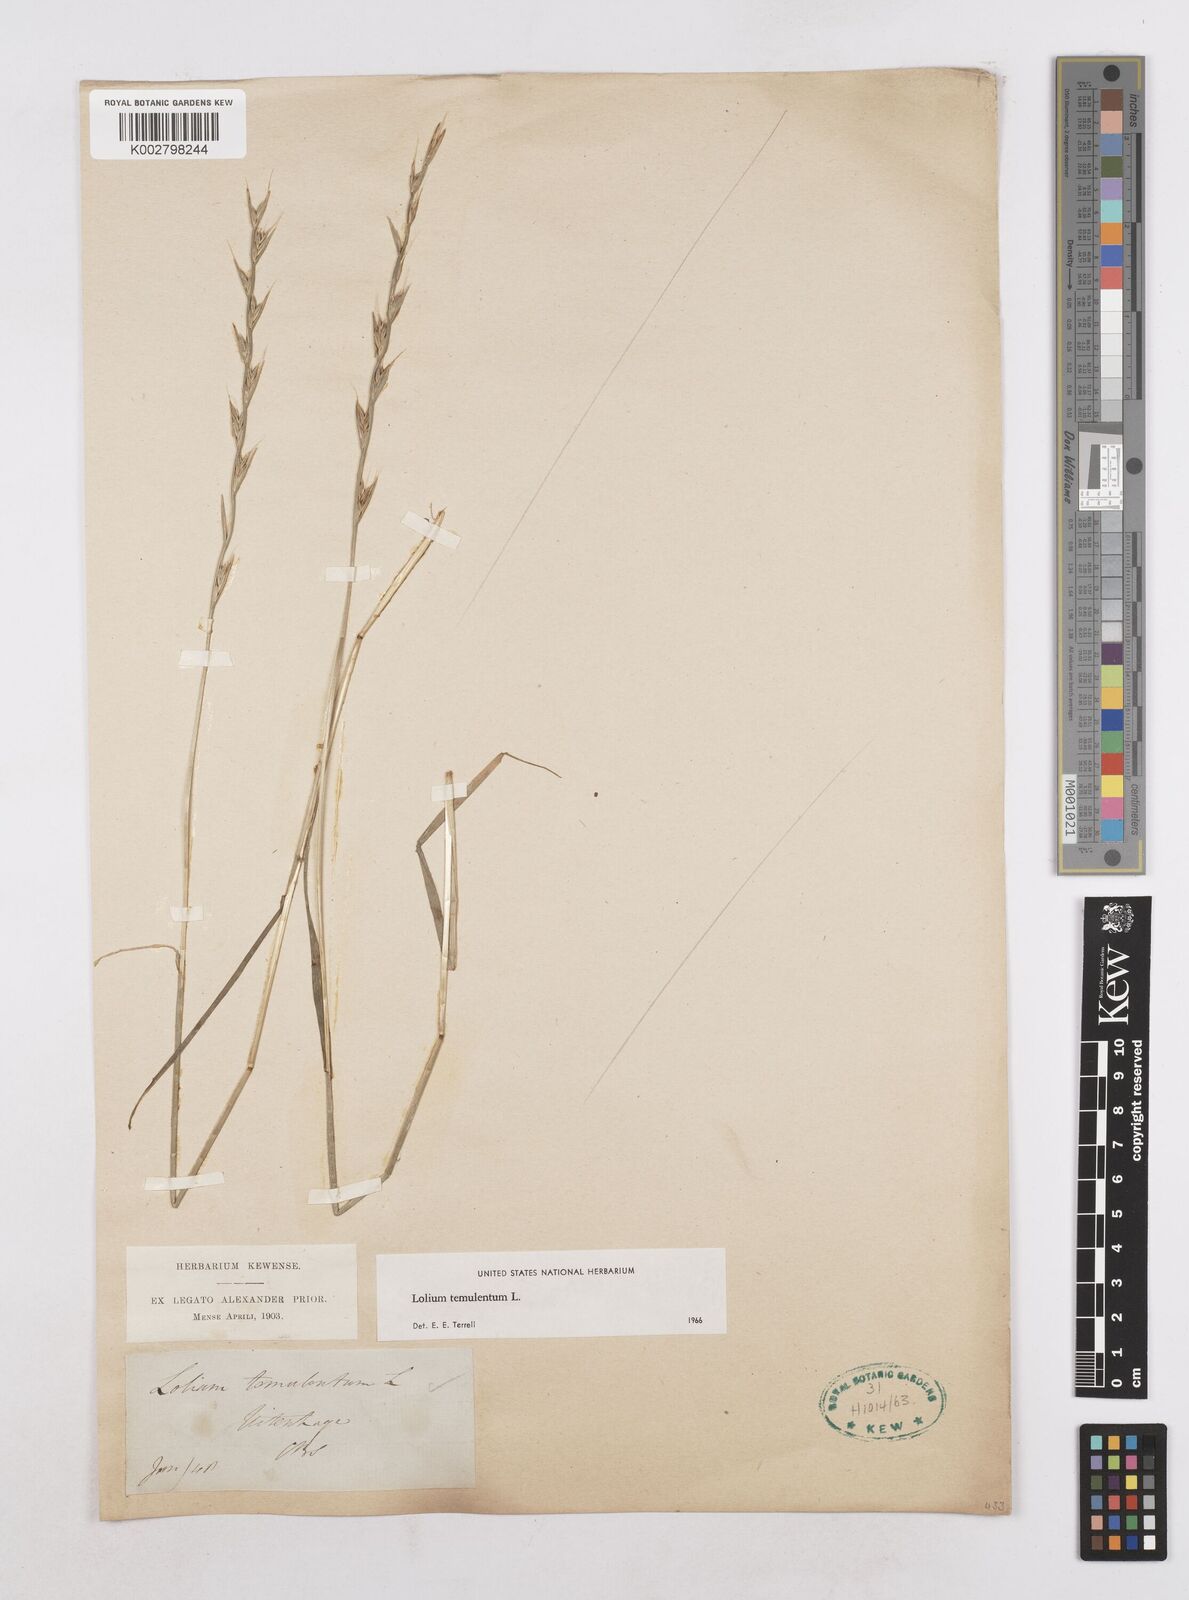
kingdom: Plantae
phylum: Tracheophyta
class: Liliopsida
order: Poales
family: Poaceae
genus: Lolium
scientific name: Lolium temulentum
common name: Darnel
